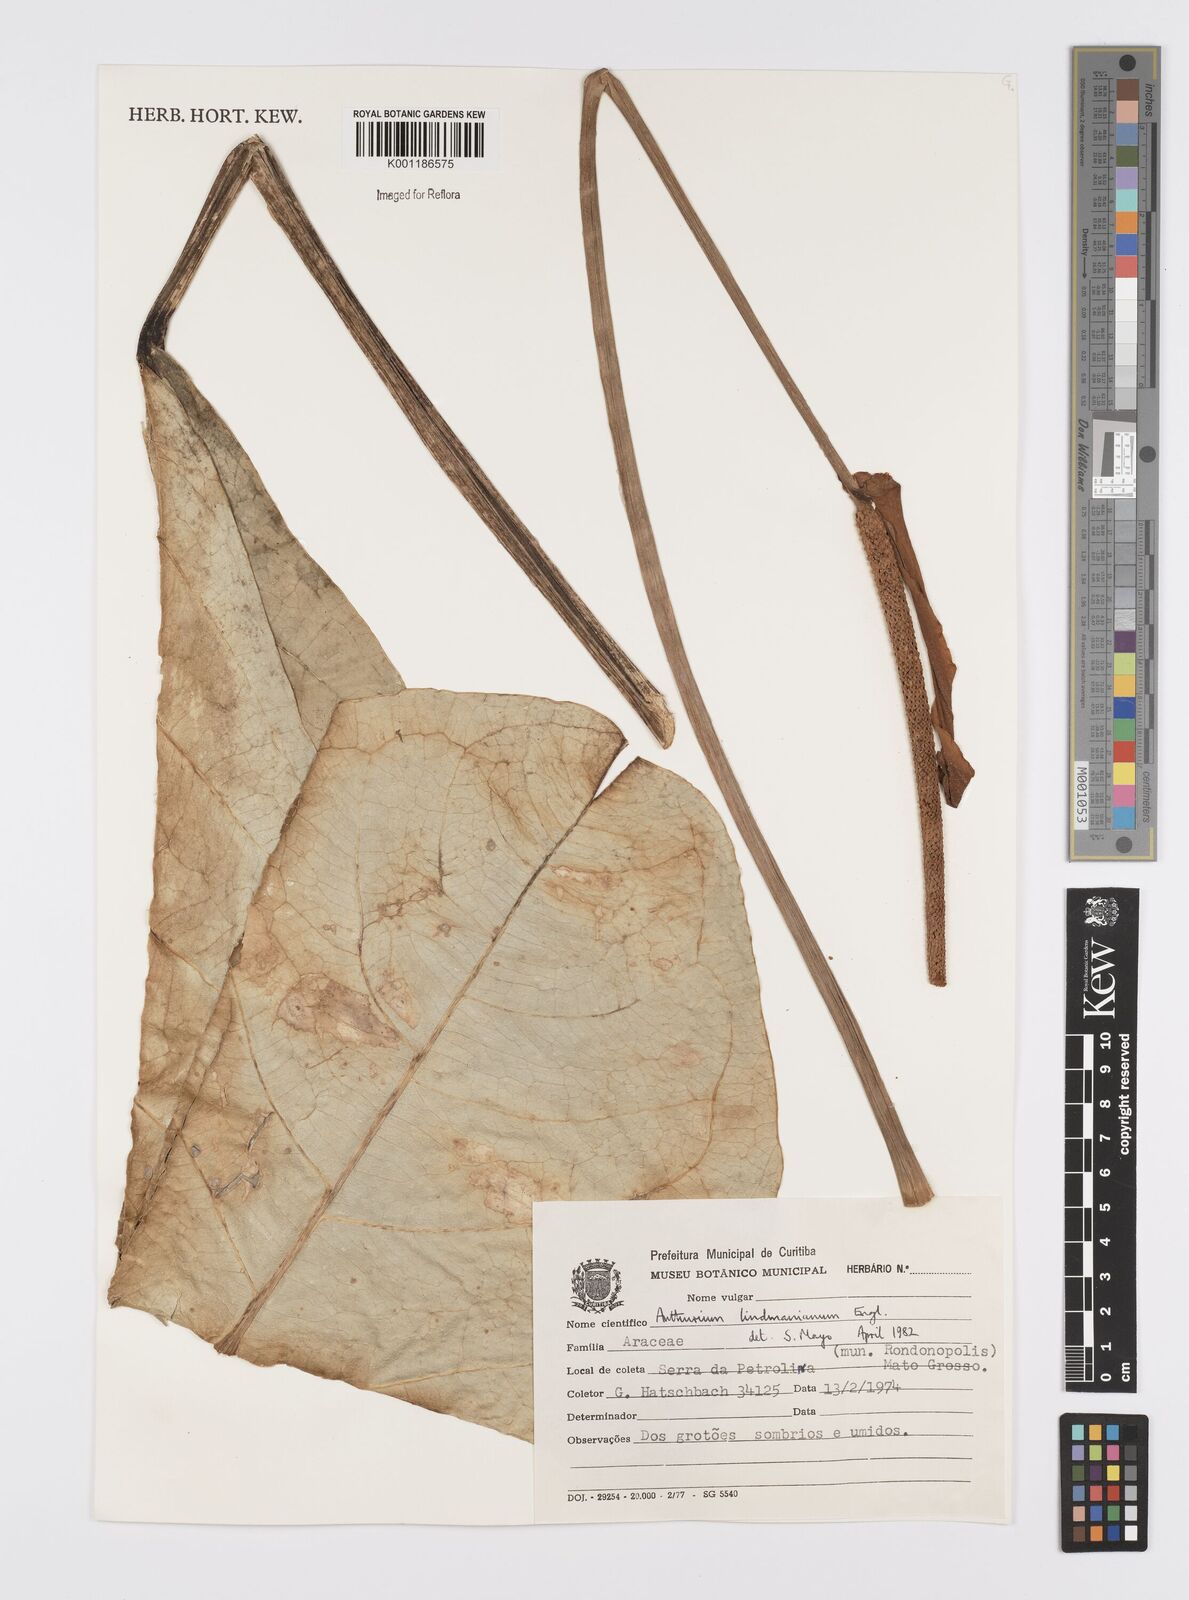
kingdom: Plantae
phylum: Tracheophyta
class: Liliopsida
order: Alismatales
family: Araceae
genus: Anthurium
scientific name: Anthurium lindmanianum
